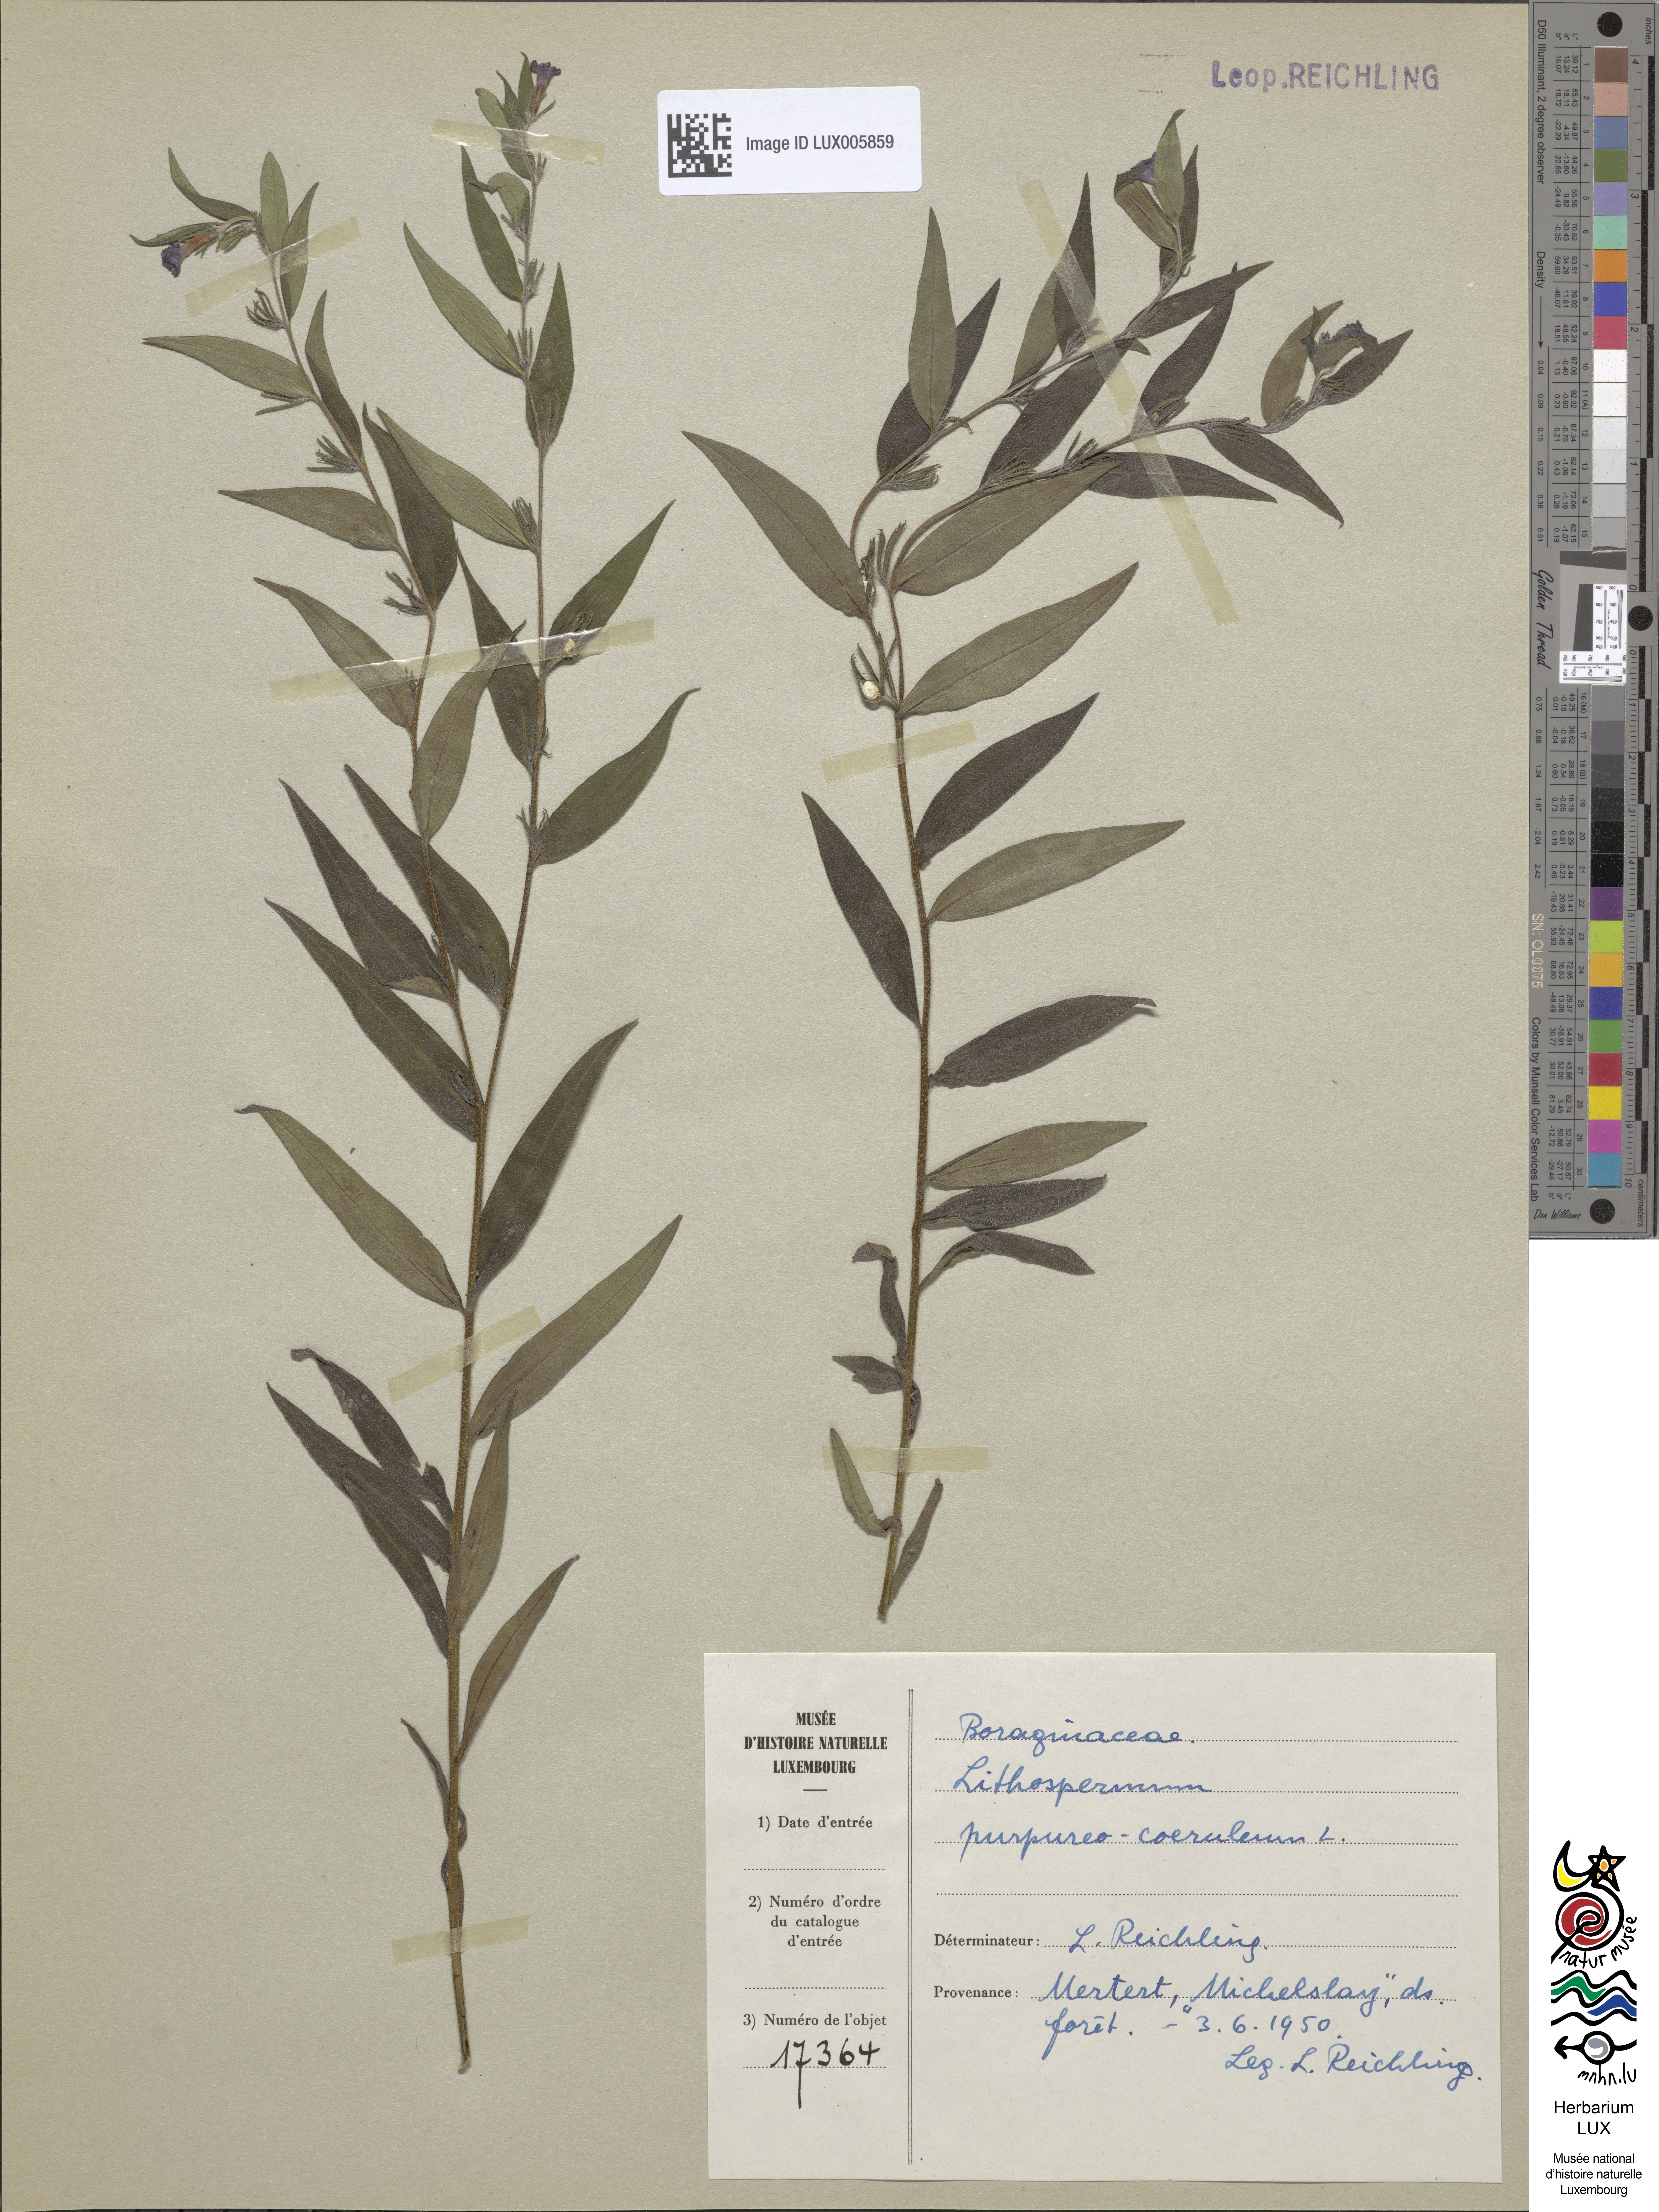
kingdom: Plantae
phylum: Tracheophyta
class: Magnoliopsida
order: Boraginales
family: Boraginaceae
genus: Aegonychon
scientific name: Aegonychon purpurocaeruleum
